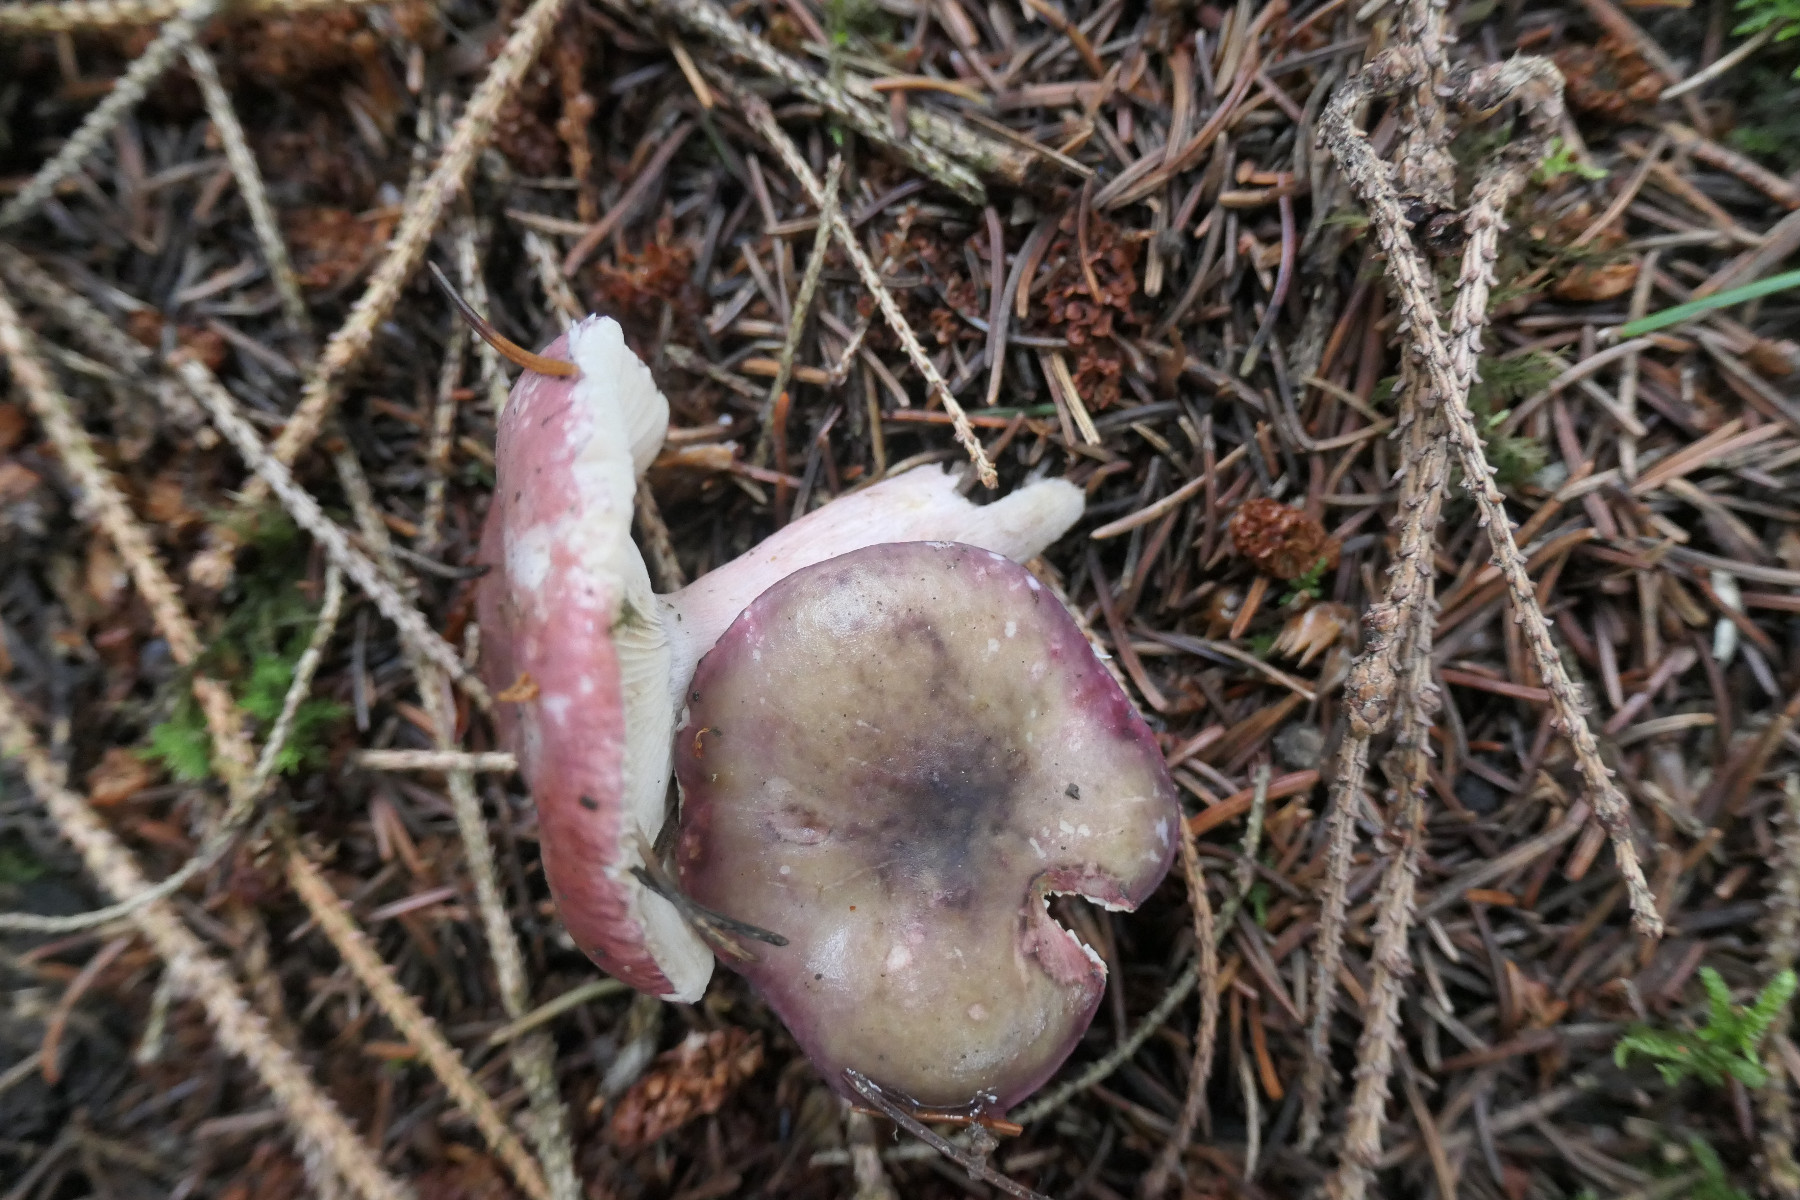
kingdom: Fungi
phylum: Basidiomycota
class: Agaricomycetes
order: Russulales
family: Russulaceae
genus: Russula
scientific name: Russula queletii
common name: Quélets skørhat
